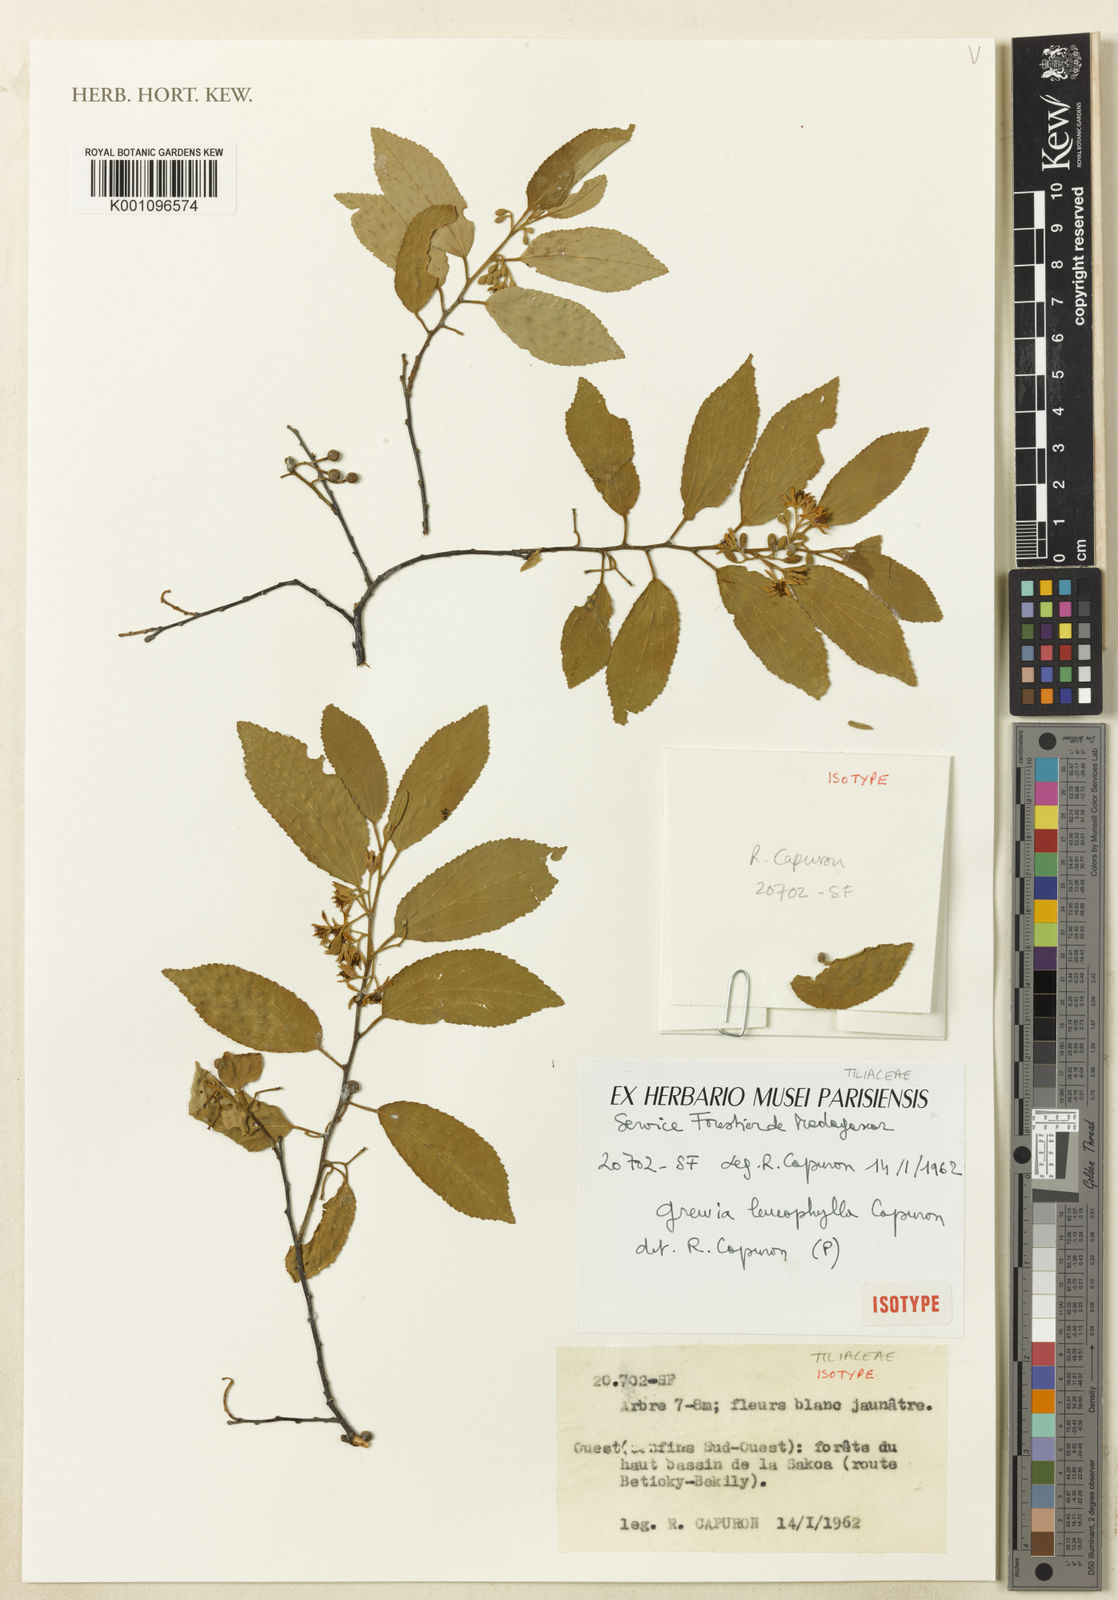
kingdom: Plantae
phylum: Tracheophyta
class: Magnoliopsida
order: Malvales
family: Malvaceae
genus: Grewia
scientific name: Grewia leucophylla
